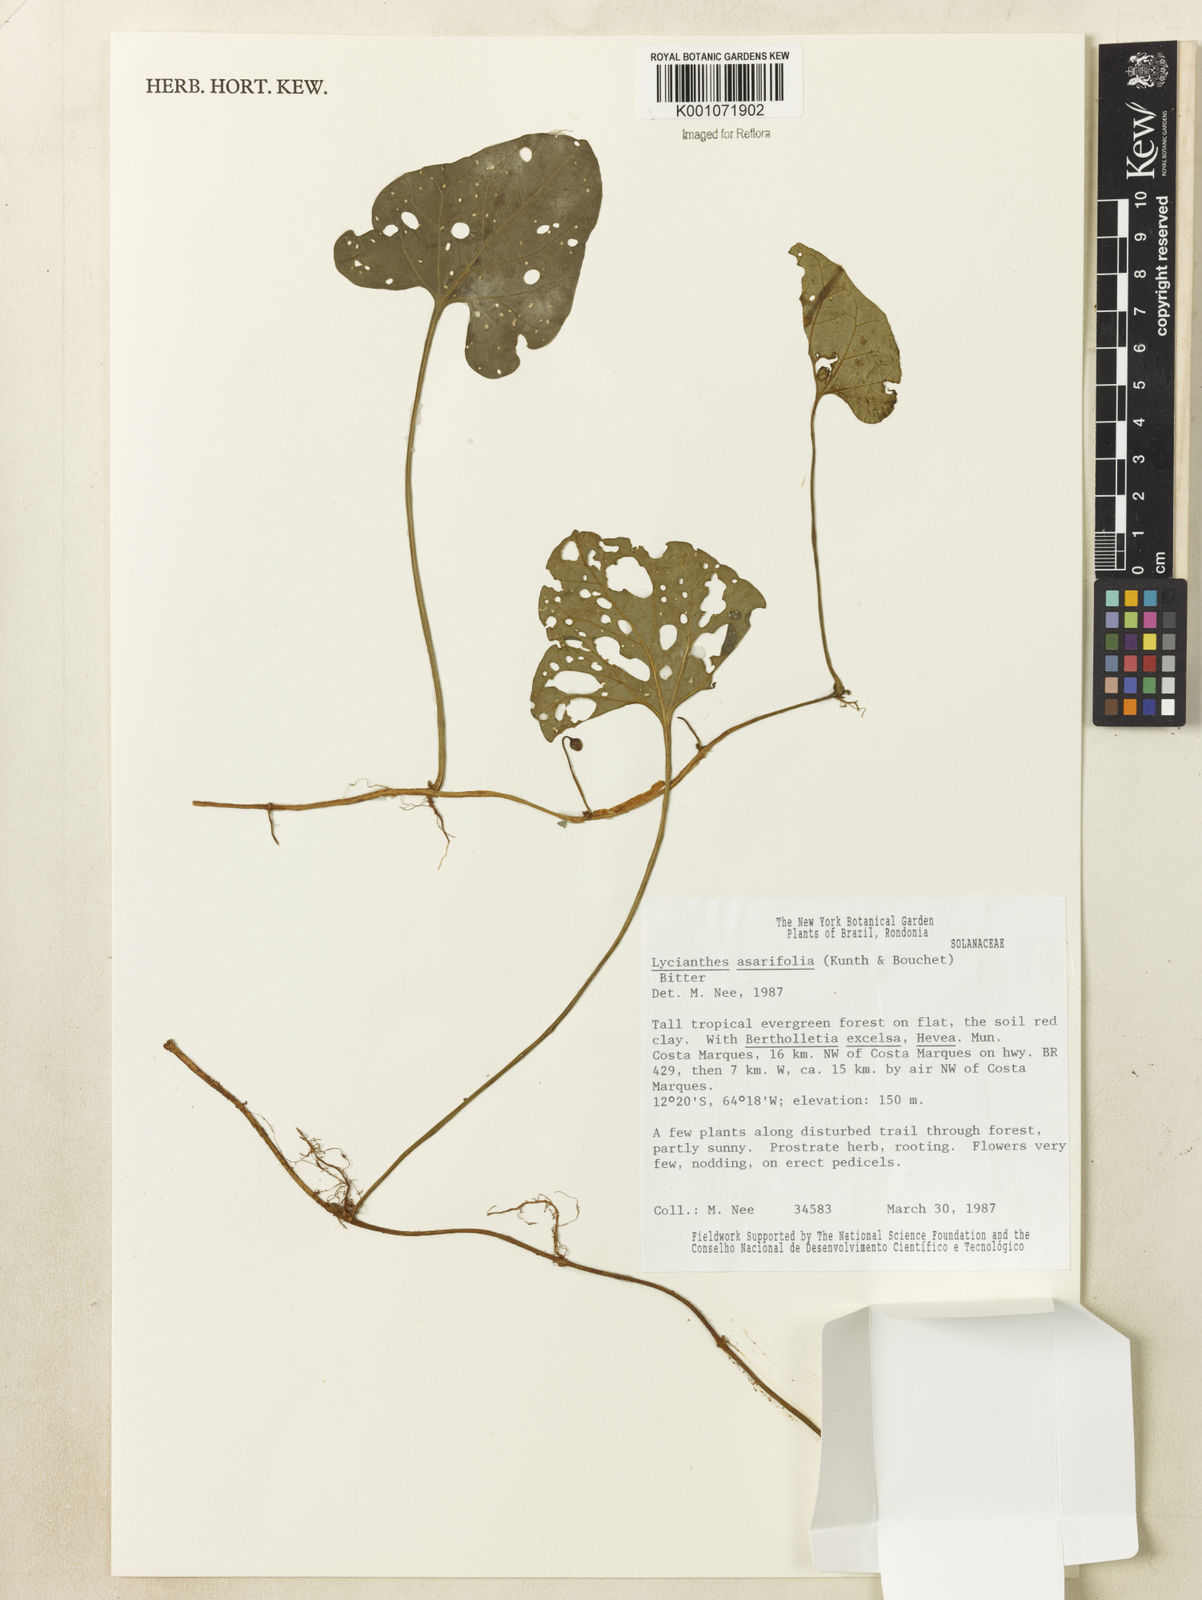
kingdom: Plantae
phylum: Tracheophyta
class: Magnoliopsida
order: Solanales
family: Solanaceae
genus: Lycianthes
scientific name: Lycianthes
